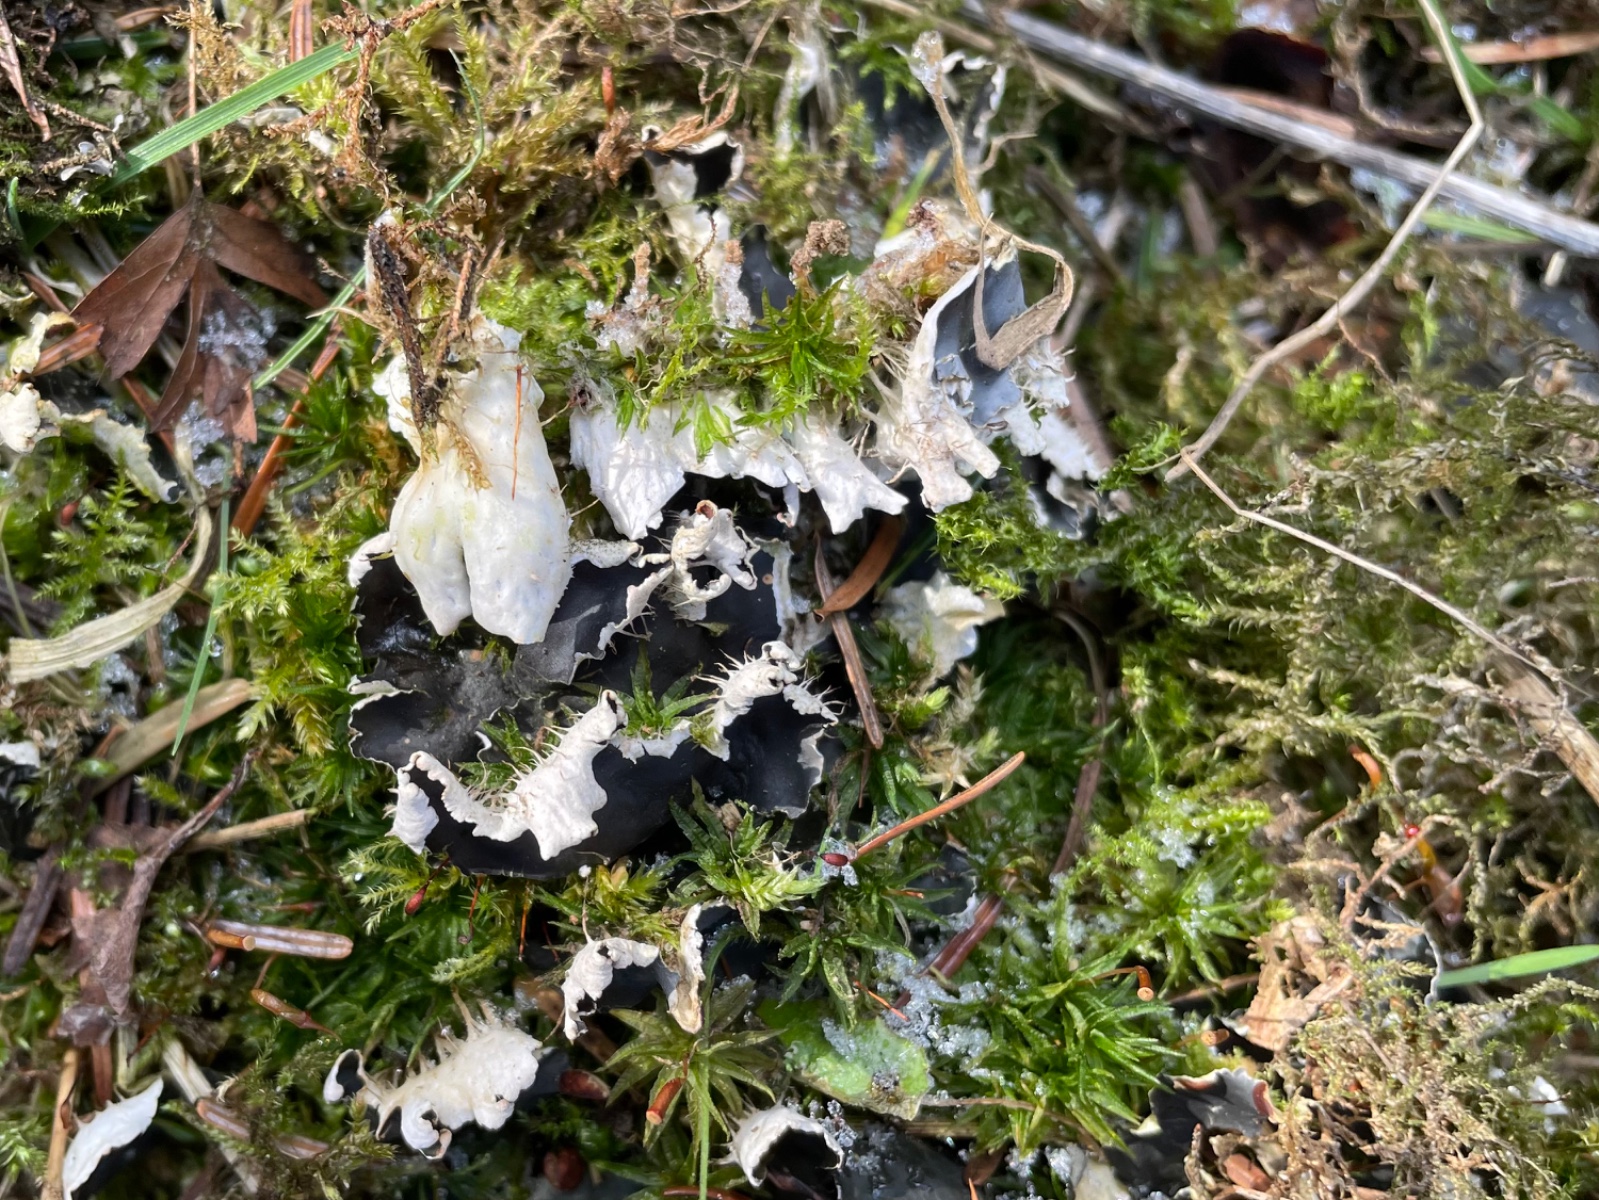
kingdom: Fungi
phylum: Ascomycota
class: Lecanoromycetes
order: Peltigerales
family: Peltigeraceae
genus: Peltigera
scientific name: Peltigera hymenina
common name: hinde-skjoldlav
